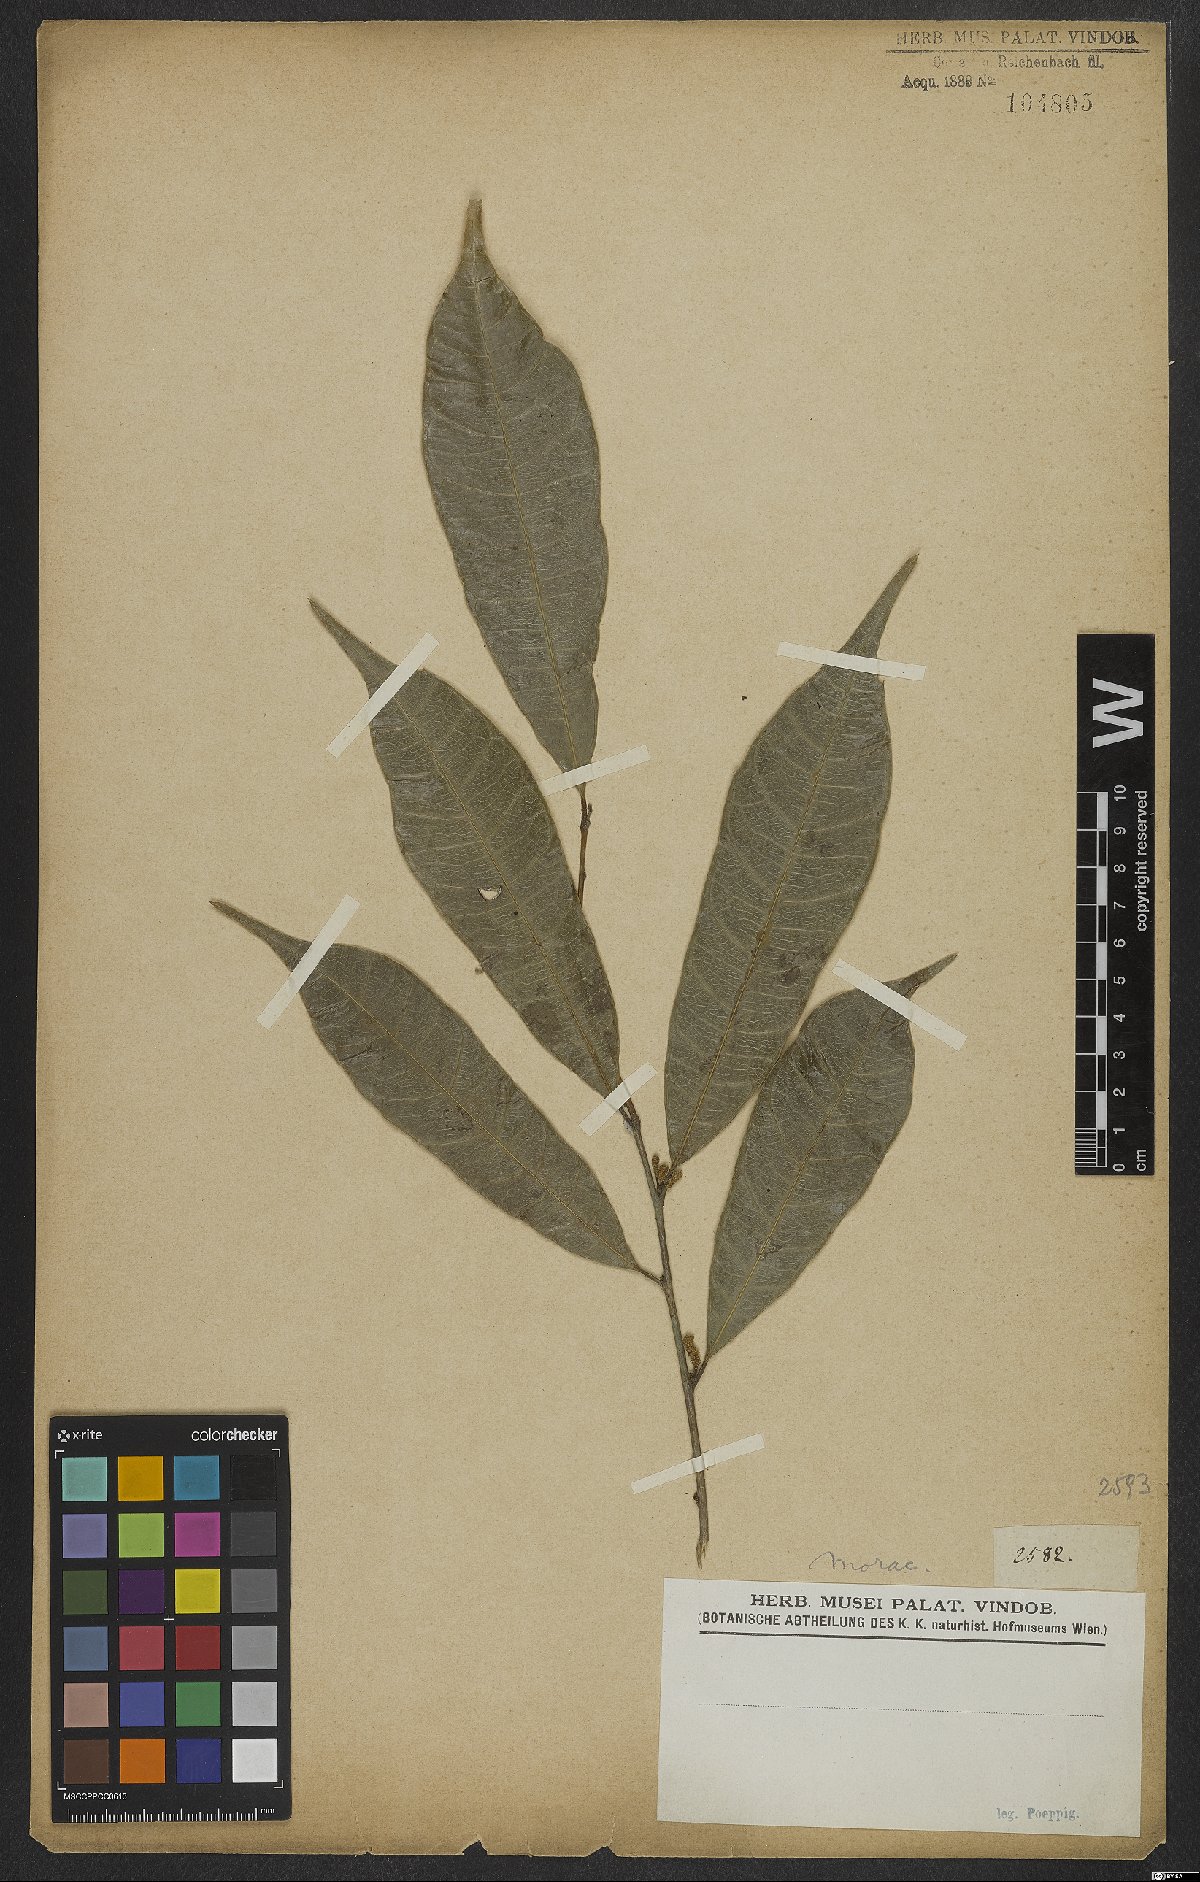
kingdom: Plantae
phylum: Tracheophyta
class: Magnoliopsida
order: Rosales
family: Moraceae
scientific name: Moraceae
